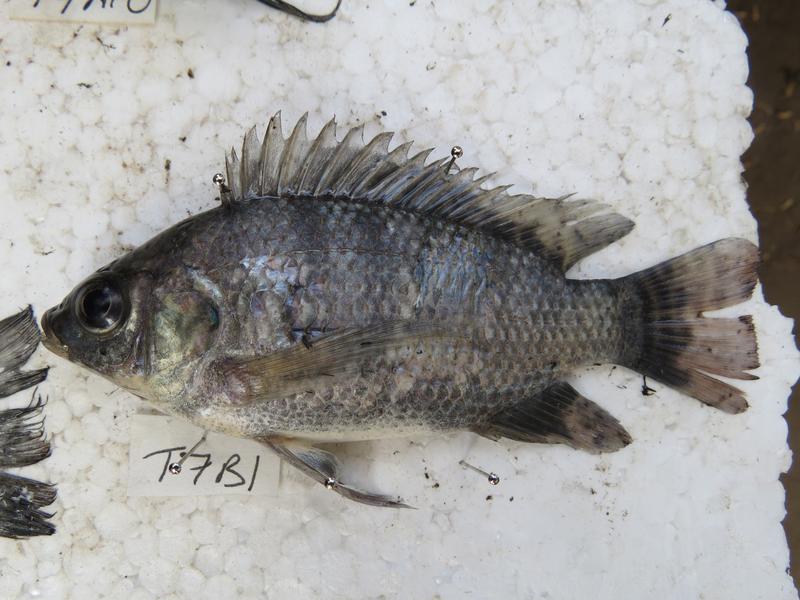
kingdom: Animalia
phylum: Chordata
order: Perciformes
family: Cichlidae
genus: Oreochromis
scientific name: Oreochromis niloticus
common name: Nile tilapia
